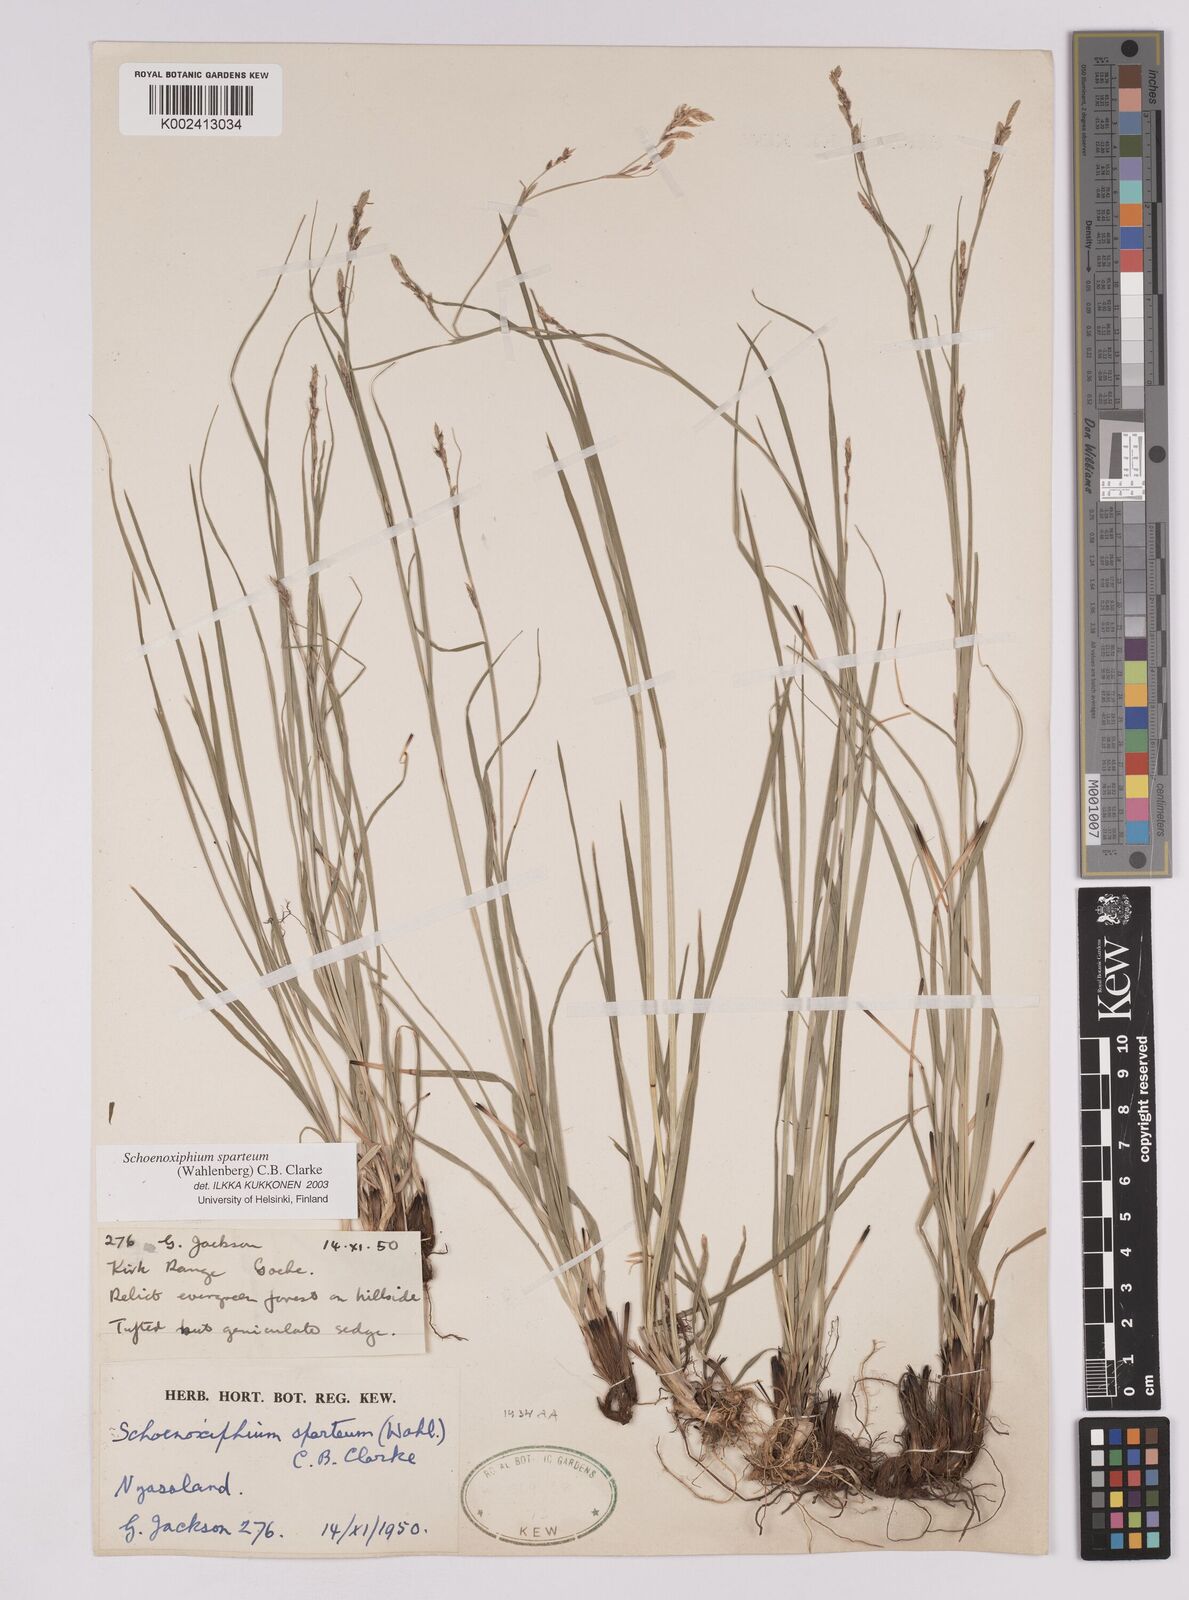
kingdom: Plantae
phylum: Tracheophyta
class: Liliopsida
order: Poales
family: Cyperaceae
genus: Carex
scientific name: Carex spartea
